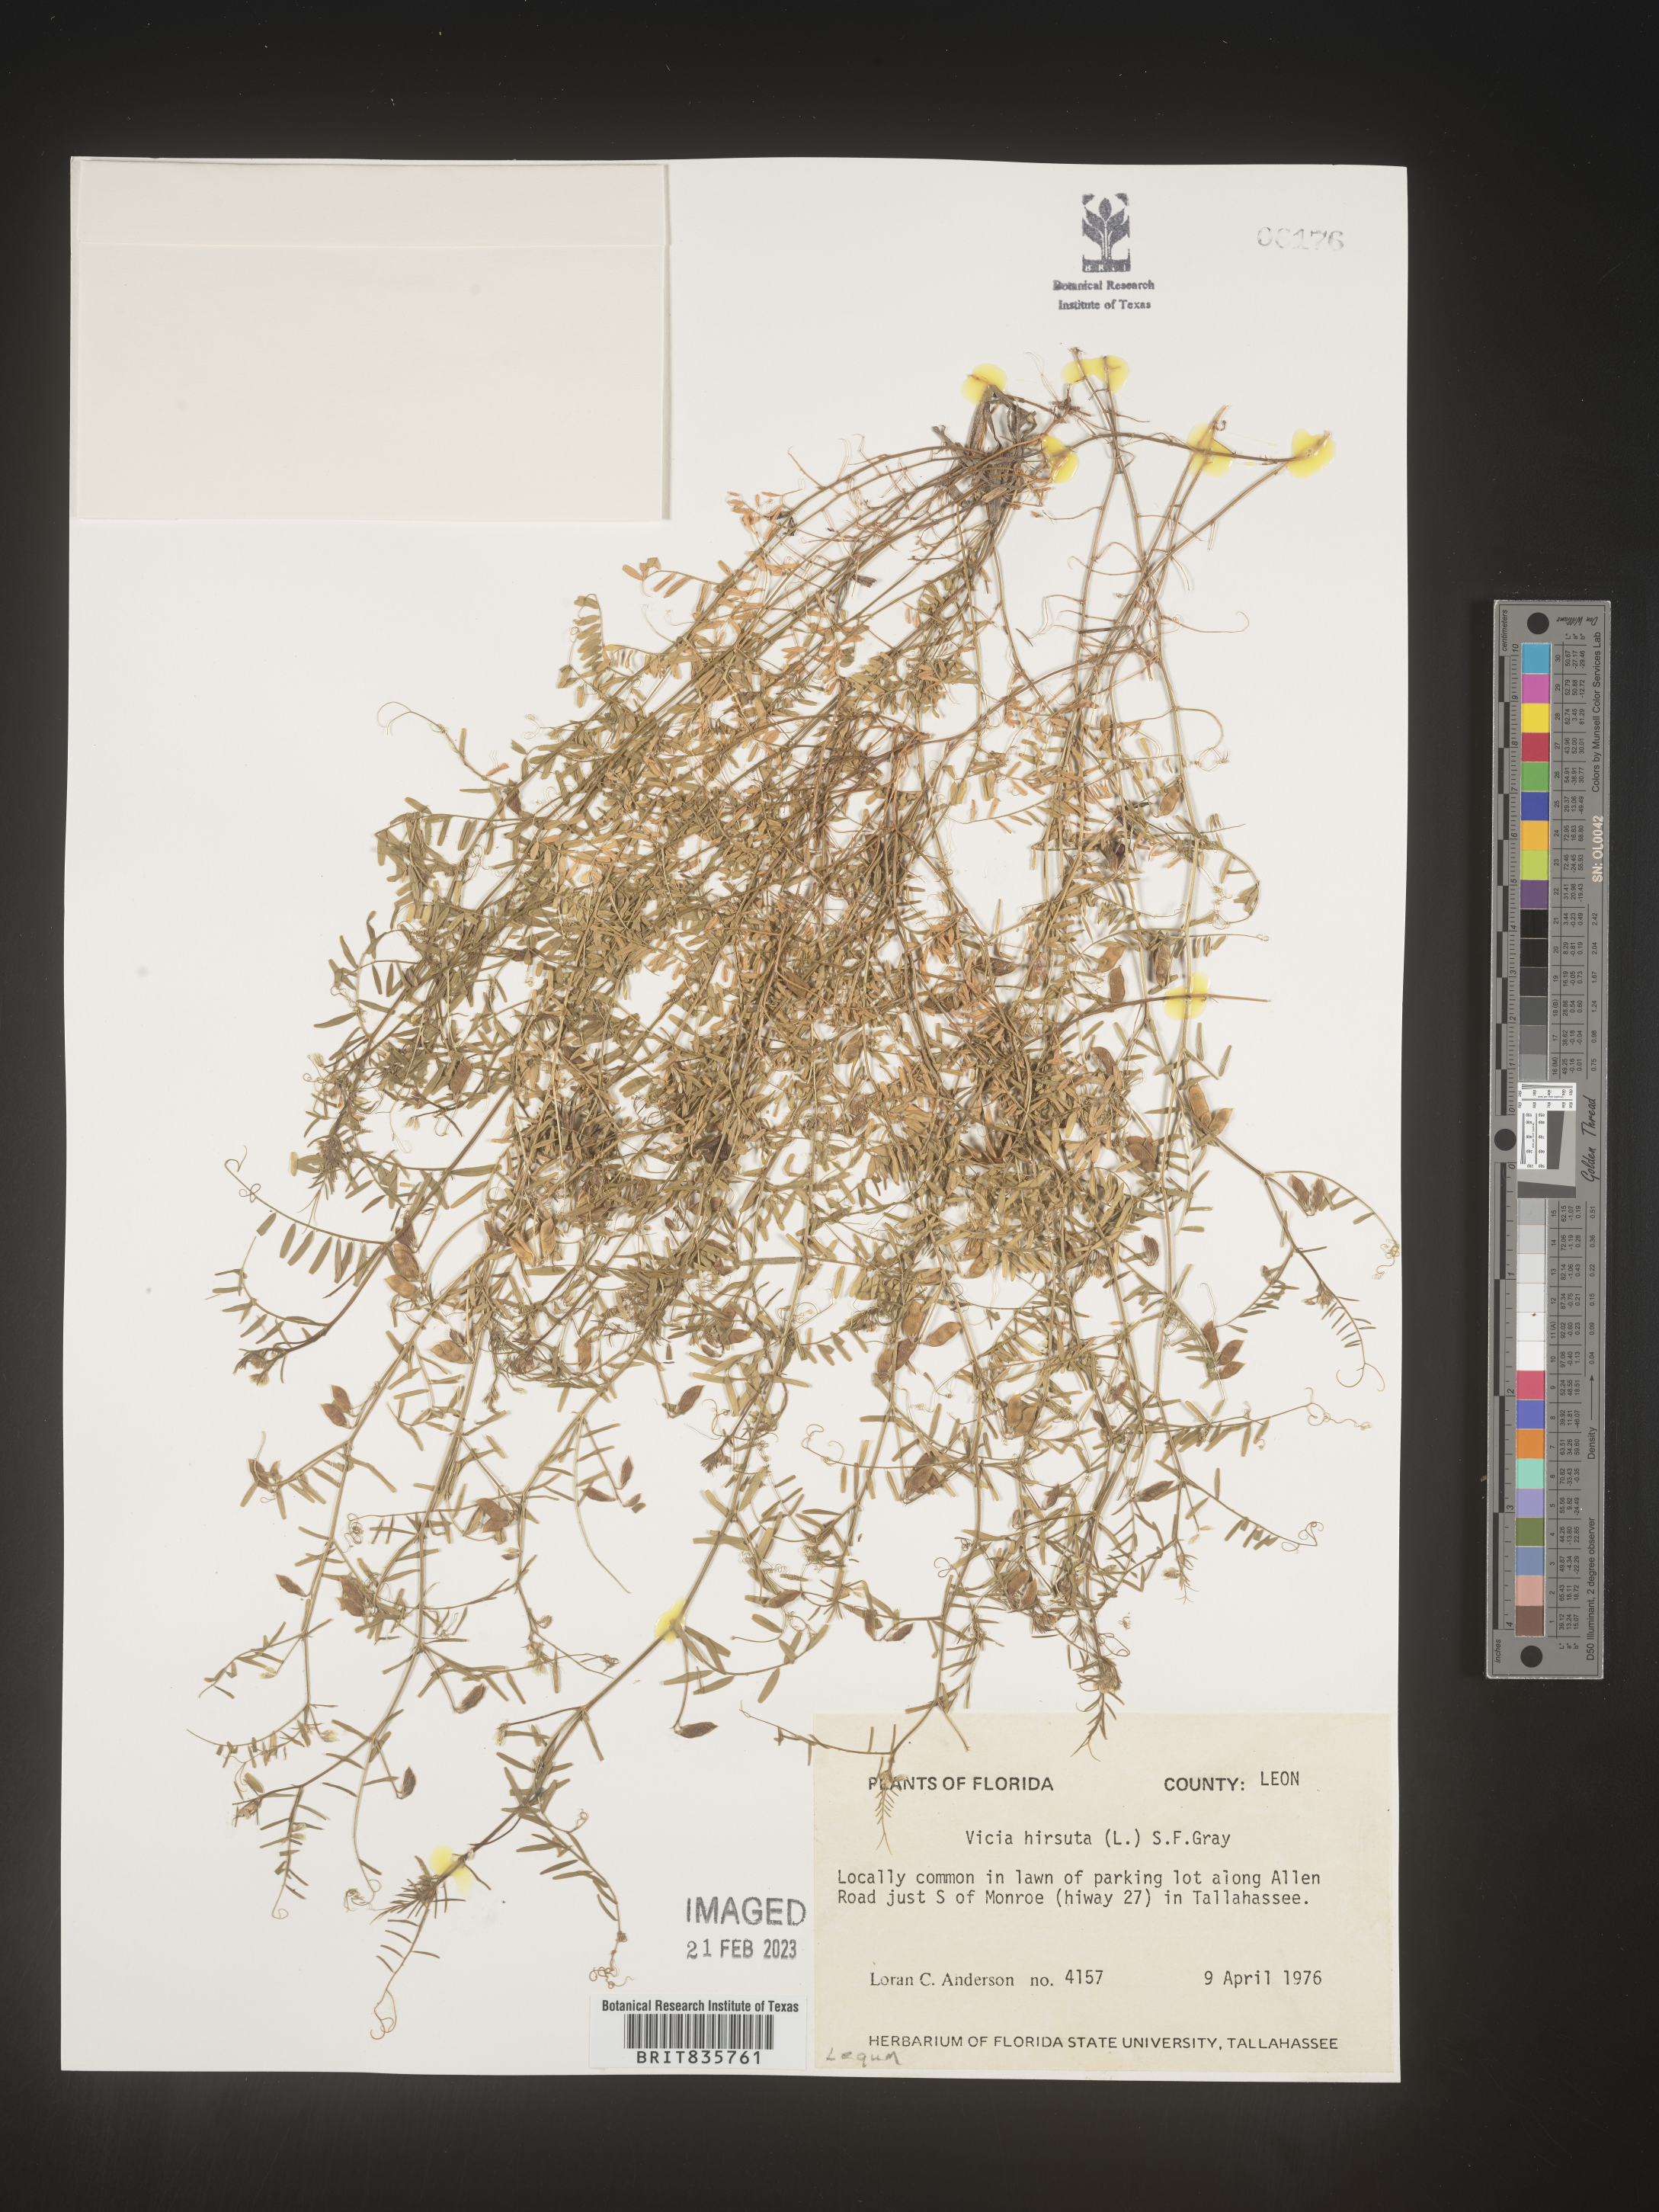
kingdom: Plantae
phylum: Tracheophyta
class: Magnoliopsida
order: Fabales
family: Fabaceae
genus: Vicia
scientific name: Vicia
